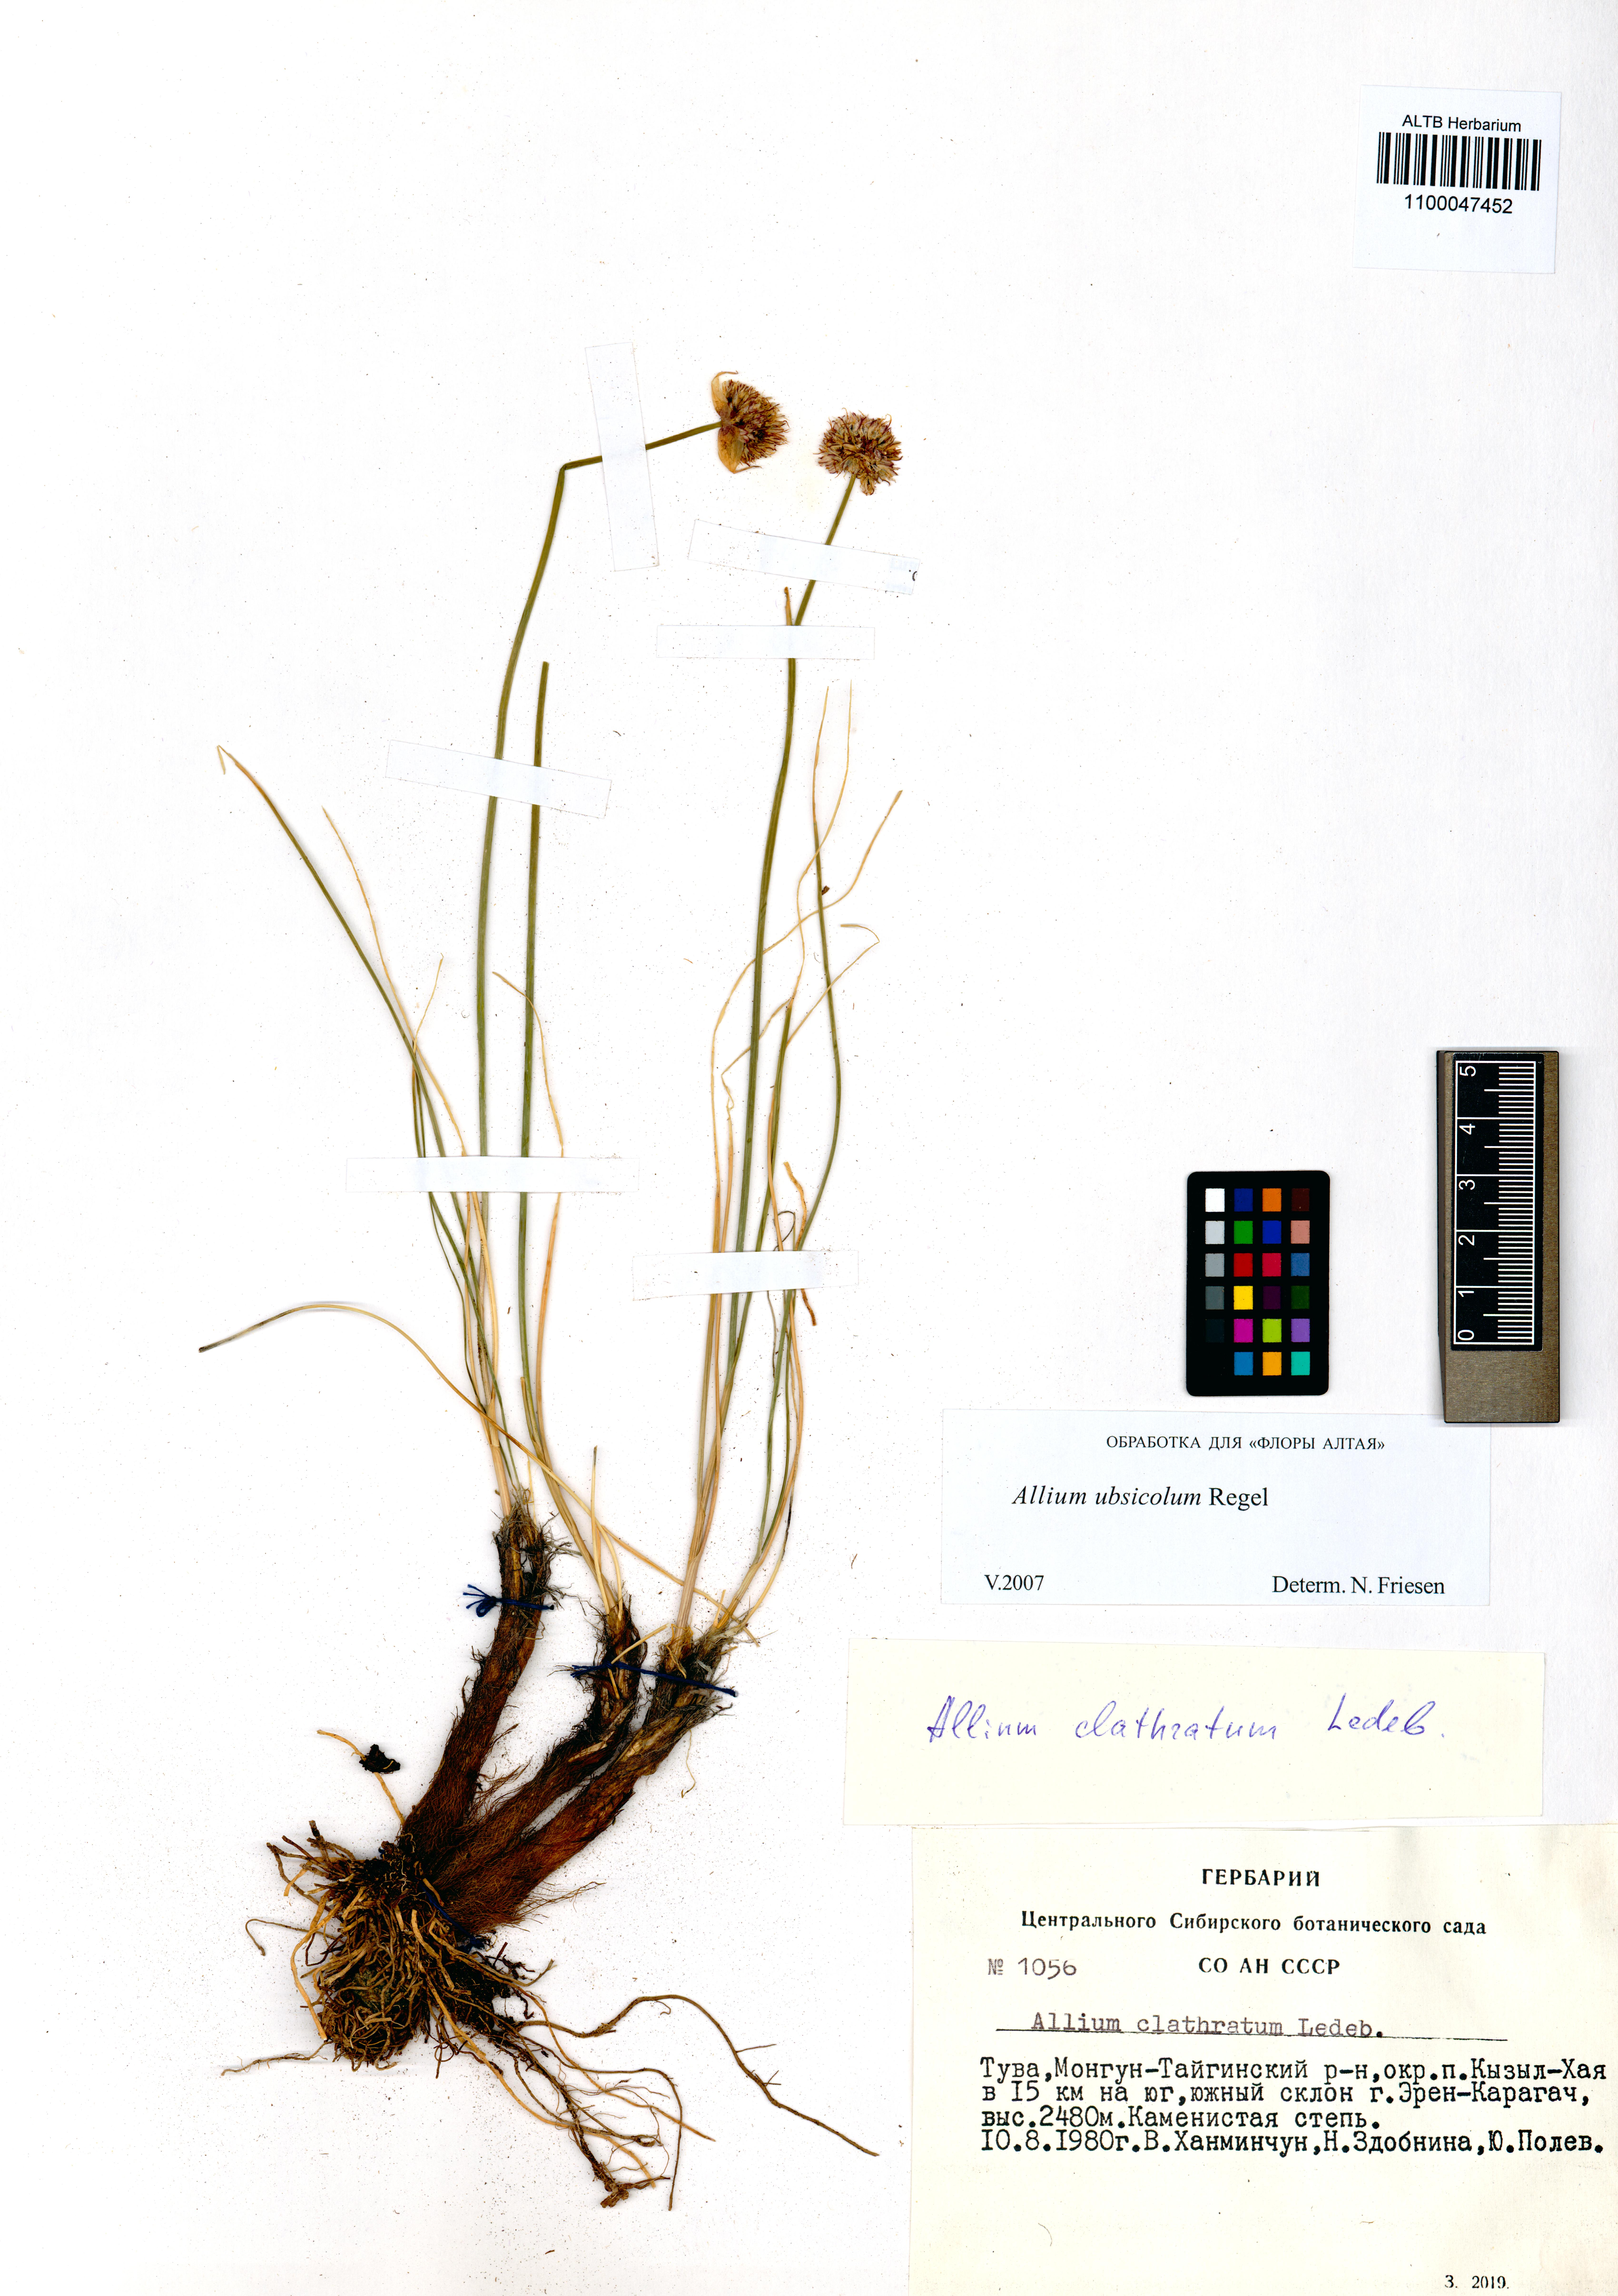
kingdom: Plantae
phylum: Tracheophyta
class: Liliopsida
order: Asparagales
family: Amaryllidaceae
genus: Allium
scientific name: Allium ubsicola
